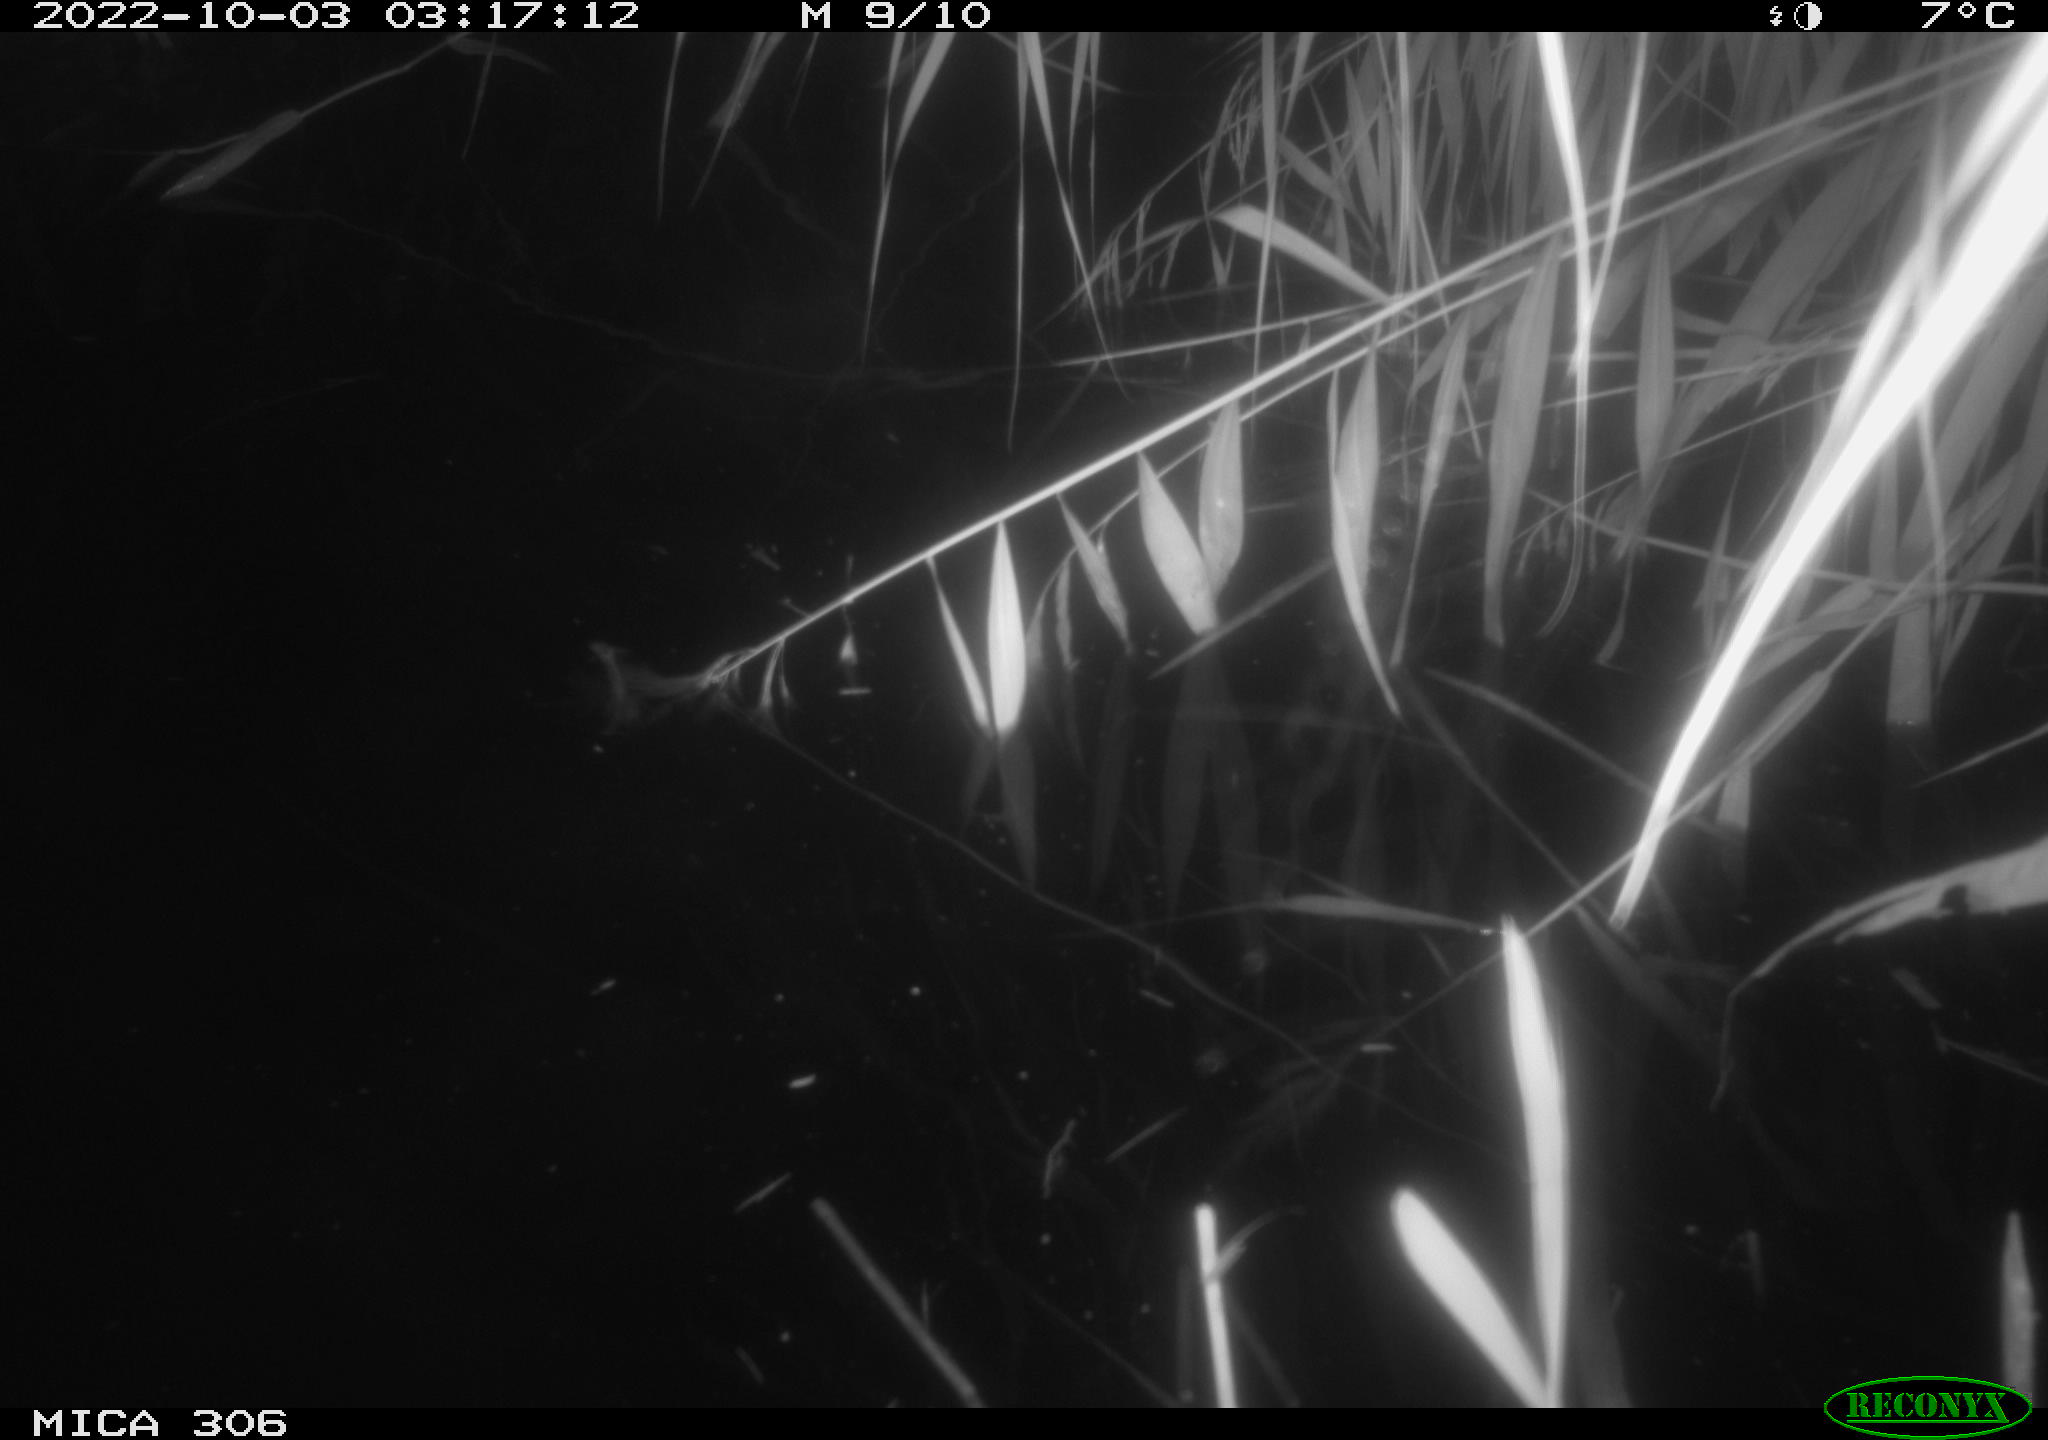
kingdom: Animalia
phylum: Chordata
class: Mammalia
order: Rodentia
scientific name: Rodentia
